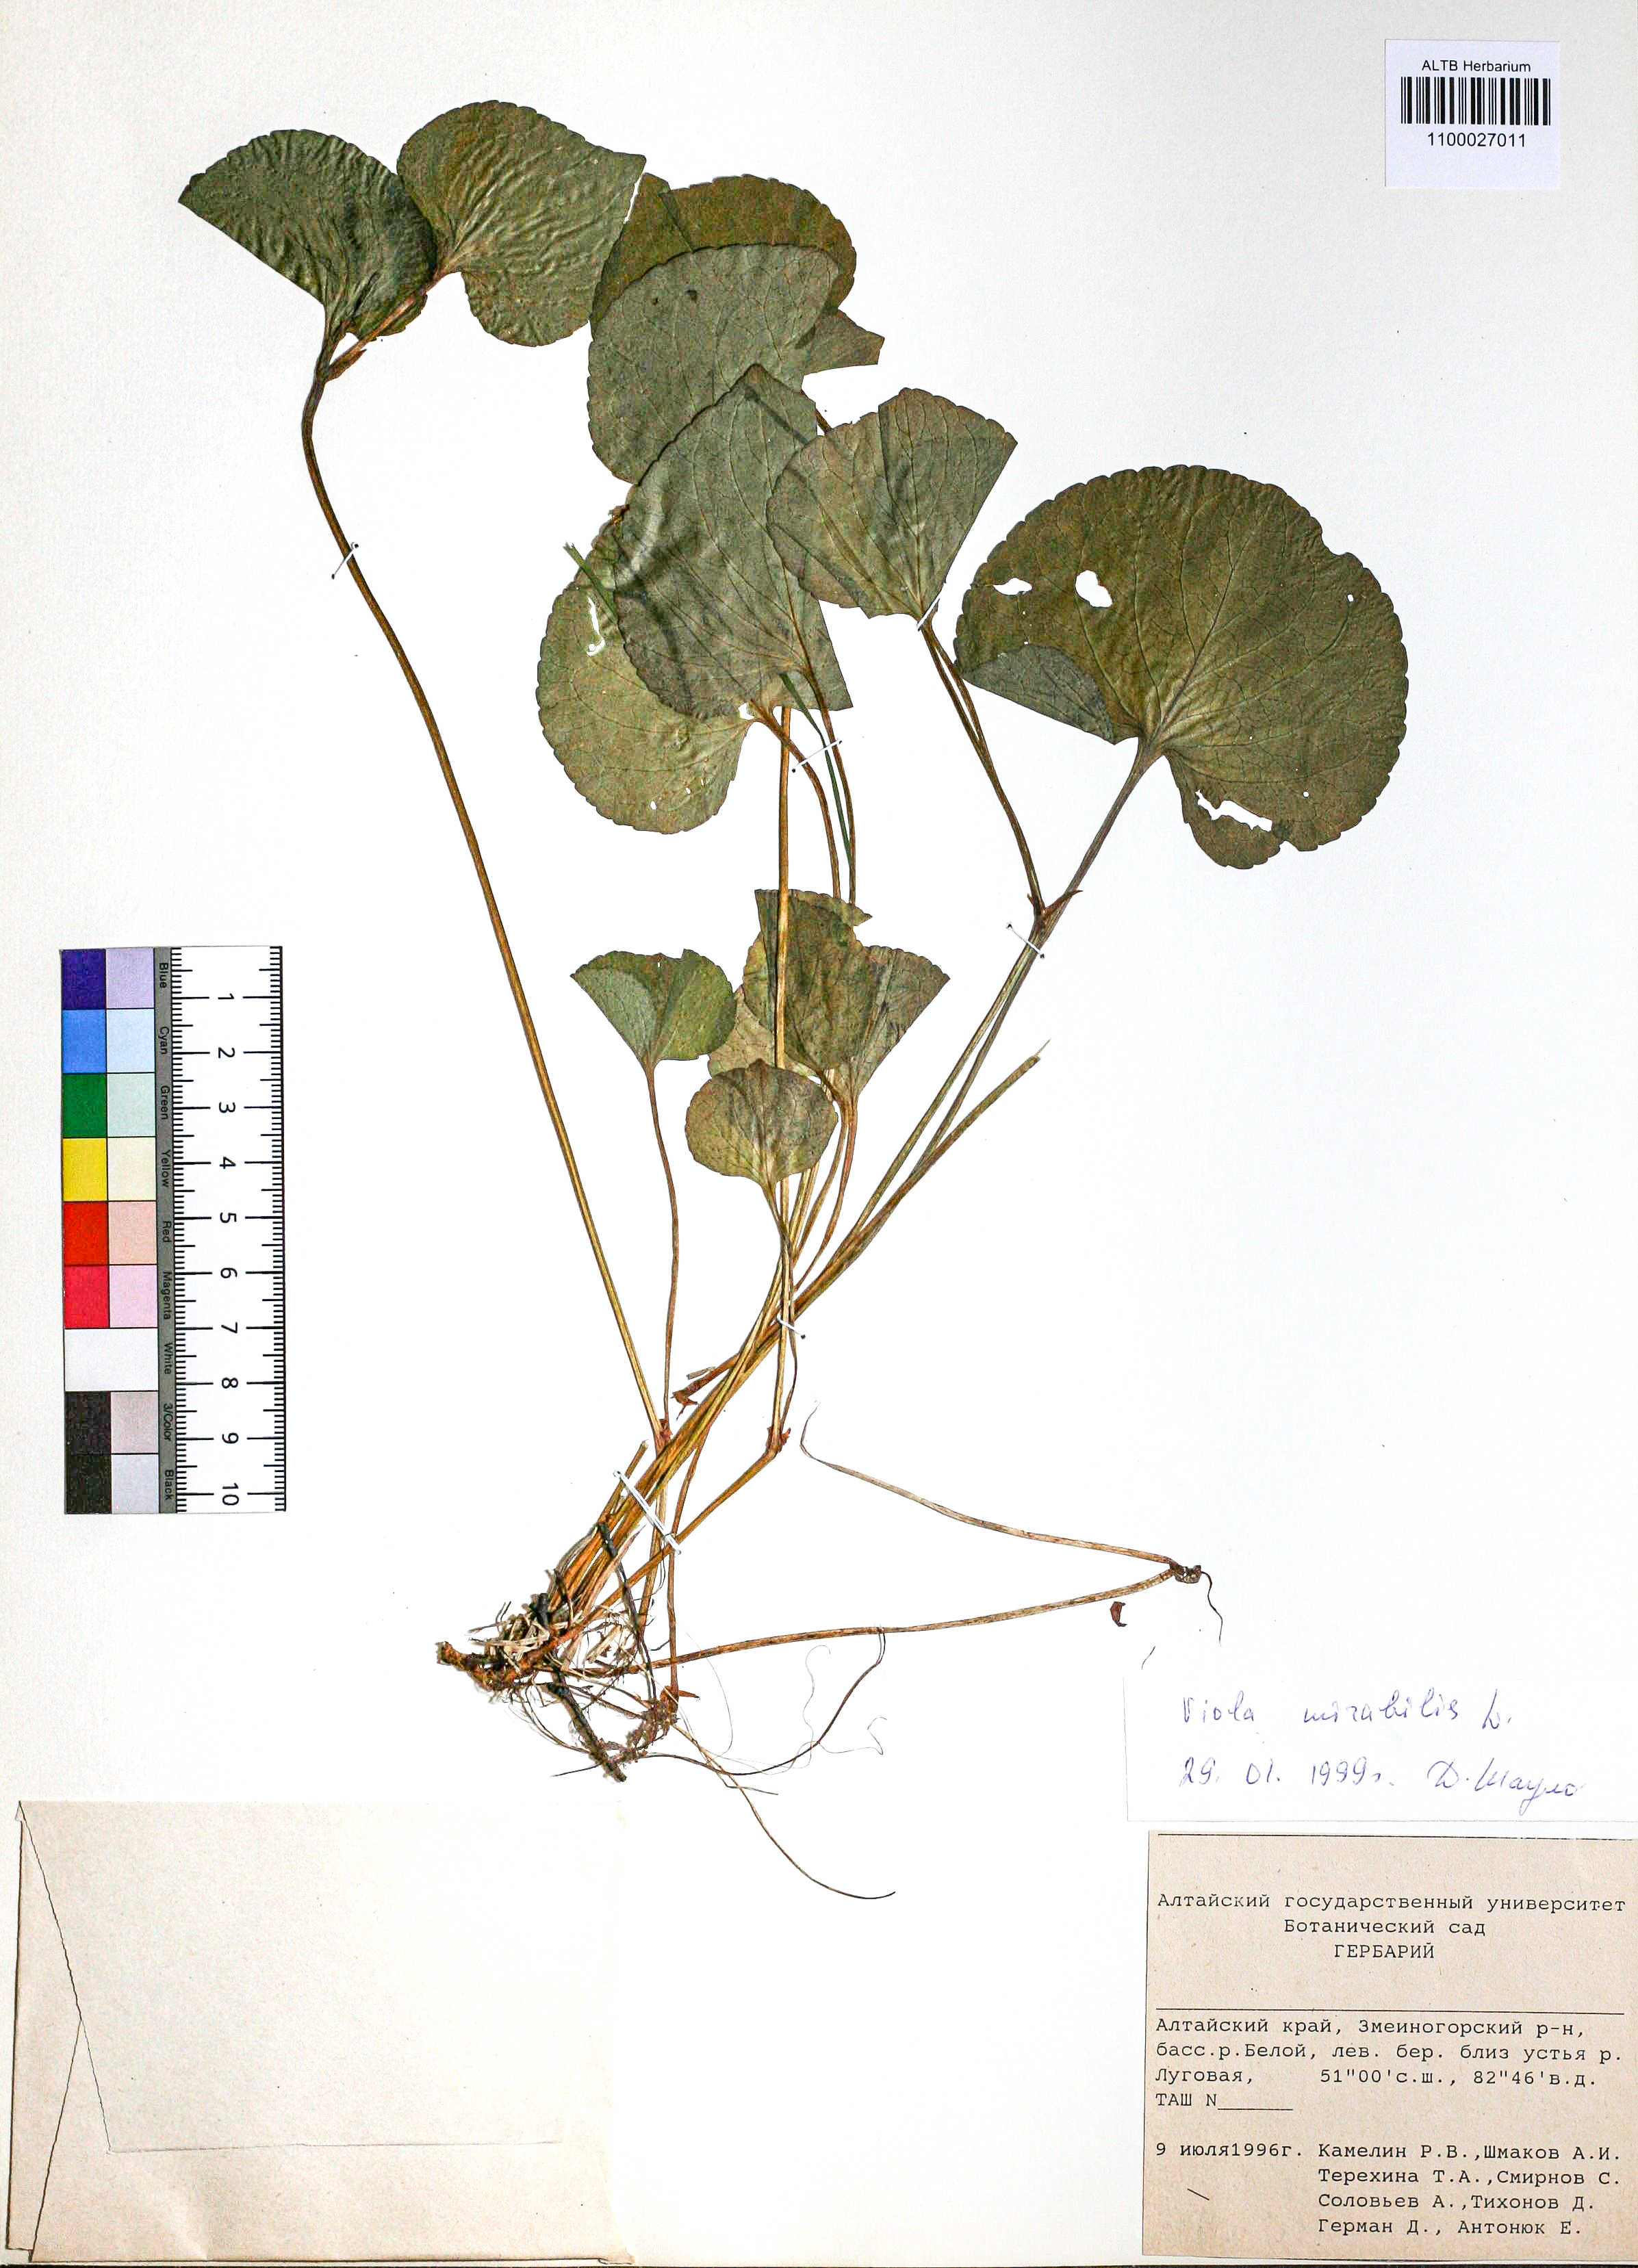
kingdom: Plantae
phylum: Tracheophyta
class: Magnoliopsida
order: Malpighiales
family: Violaceae
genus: Viola
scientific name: Viola mirabilis
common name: Wonder violet
